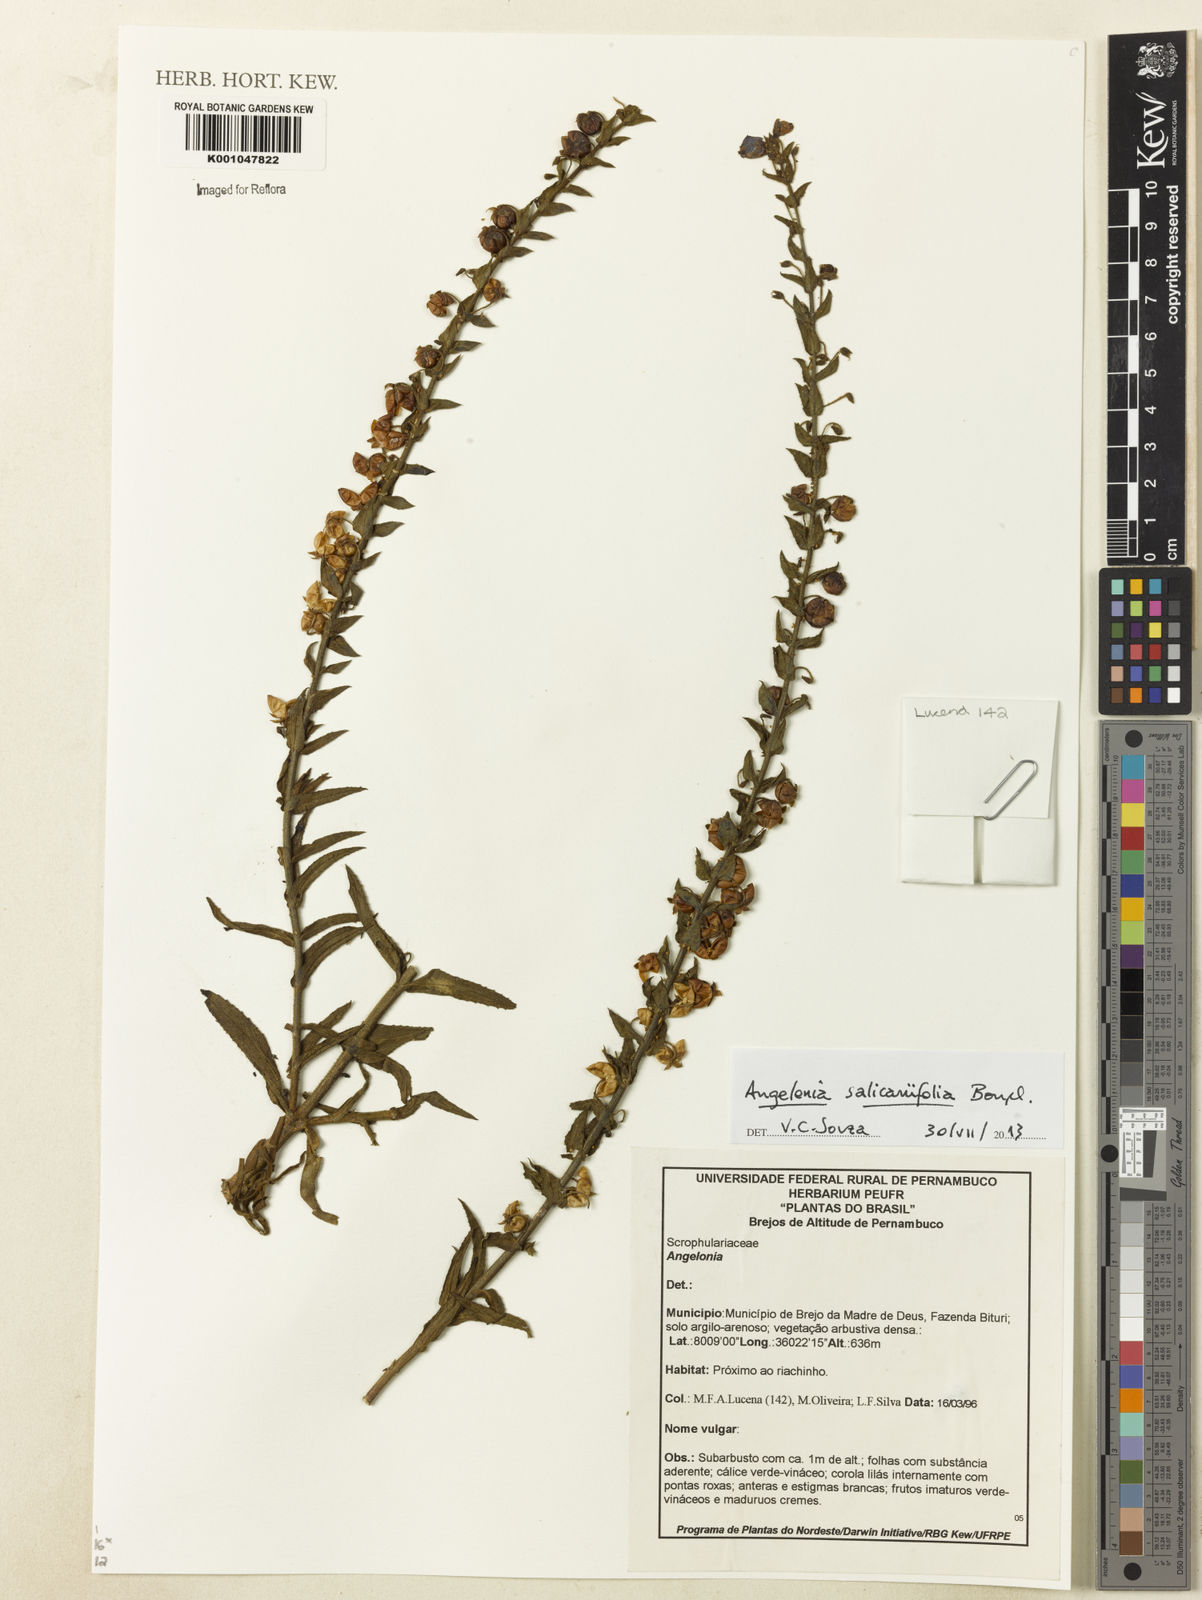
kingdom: Plantae
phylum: Tracheophyta
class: Magnoliopsida
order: Lamiales
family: Plantaginaceae
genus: Angelonia
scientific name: Angelonia salicariifolia
